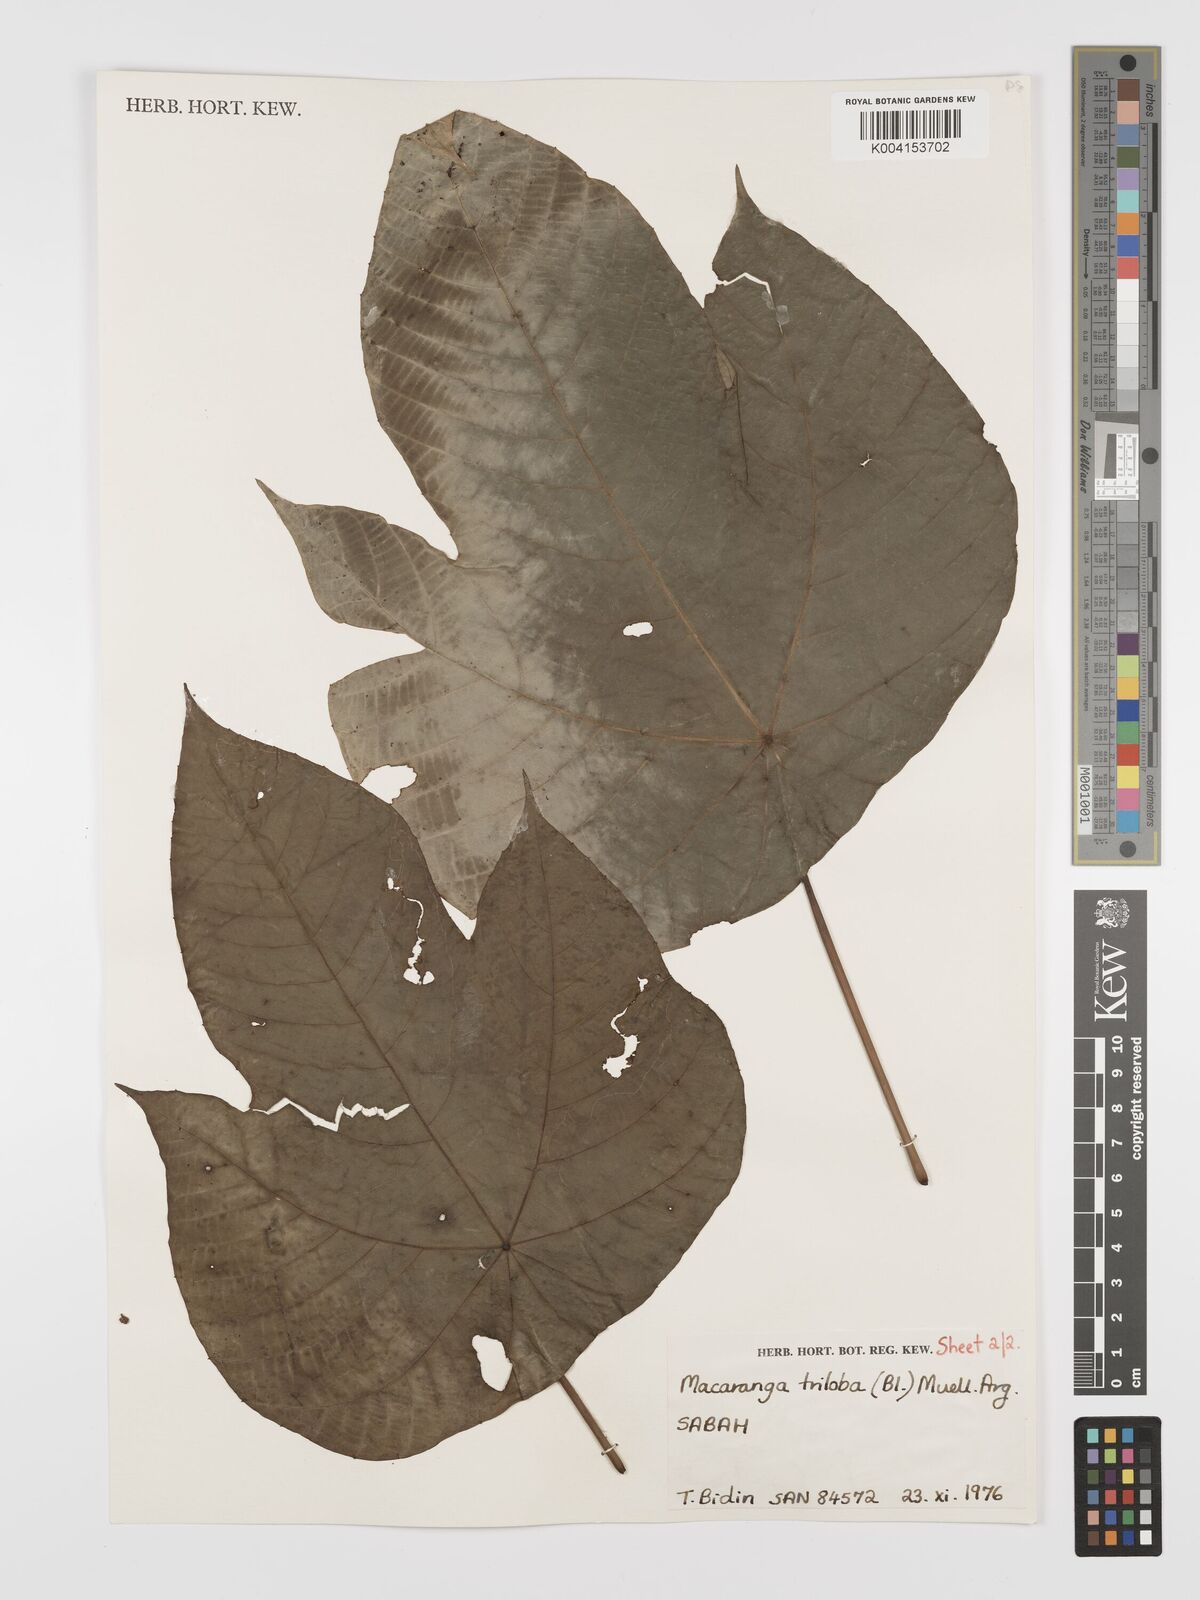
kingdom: Plantae
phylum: Tracheophyta
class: Magnoliopsida
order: Malpighiales
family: Euphorbiaceae
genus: Macaranga
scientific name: Macaranga triloba
